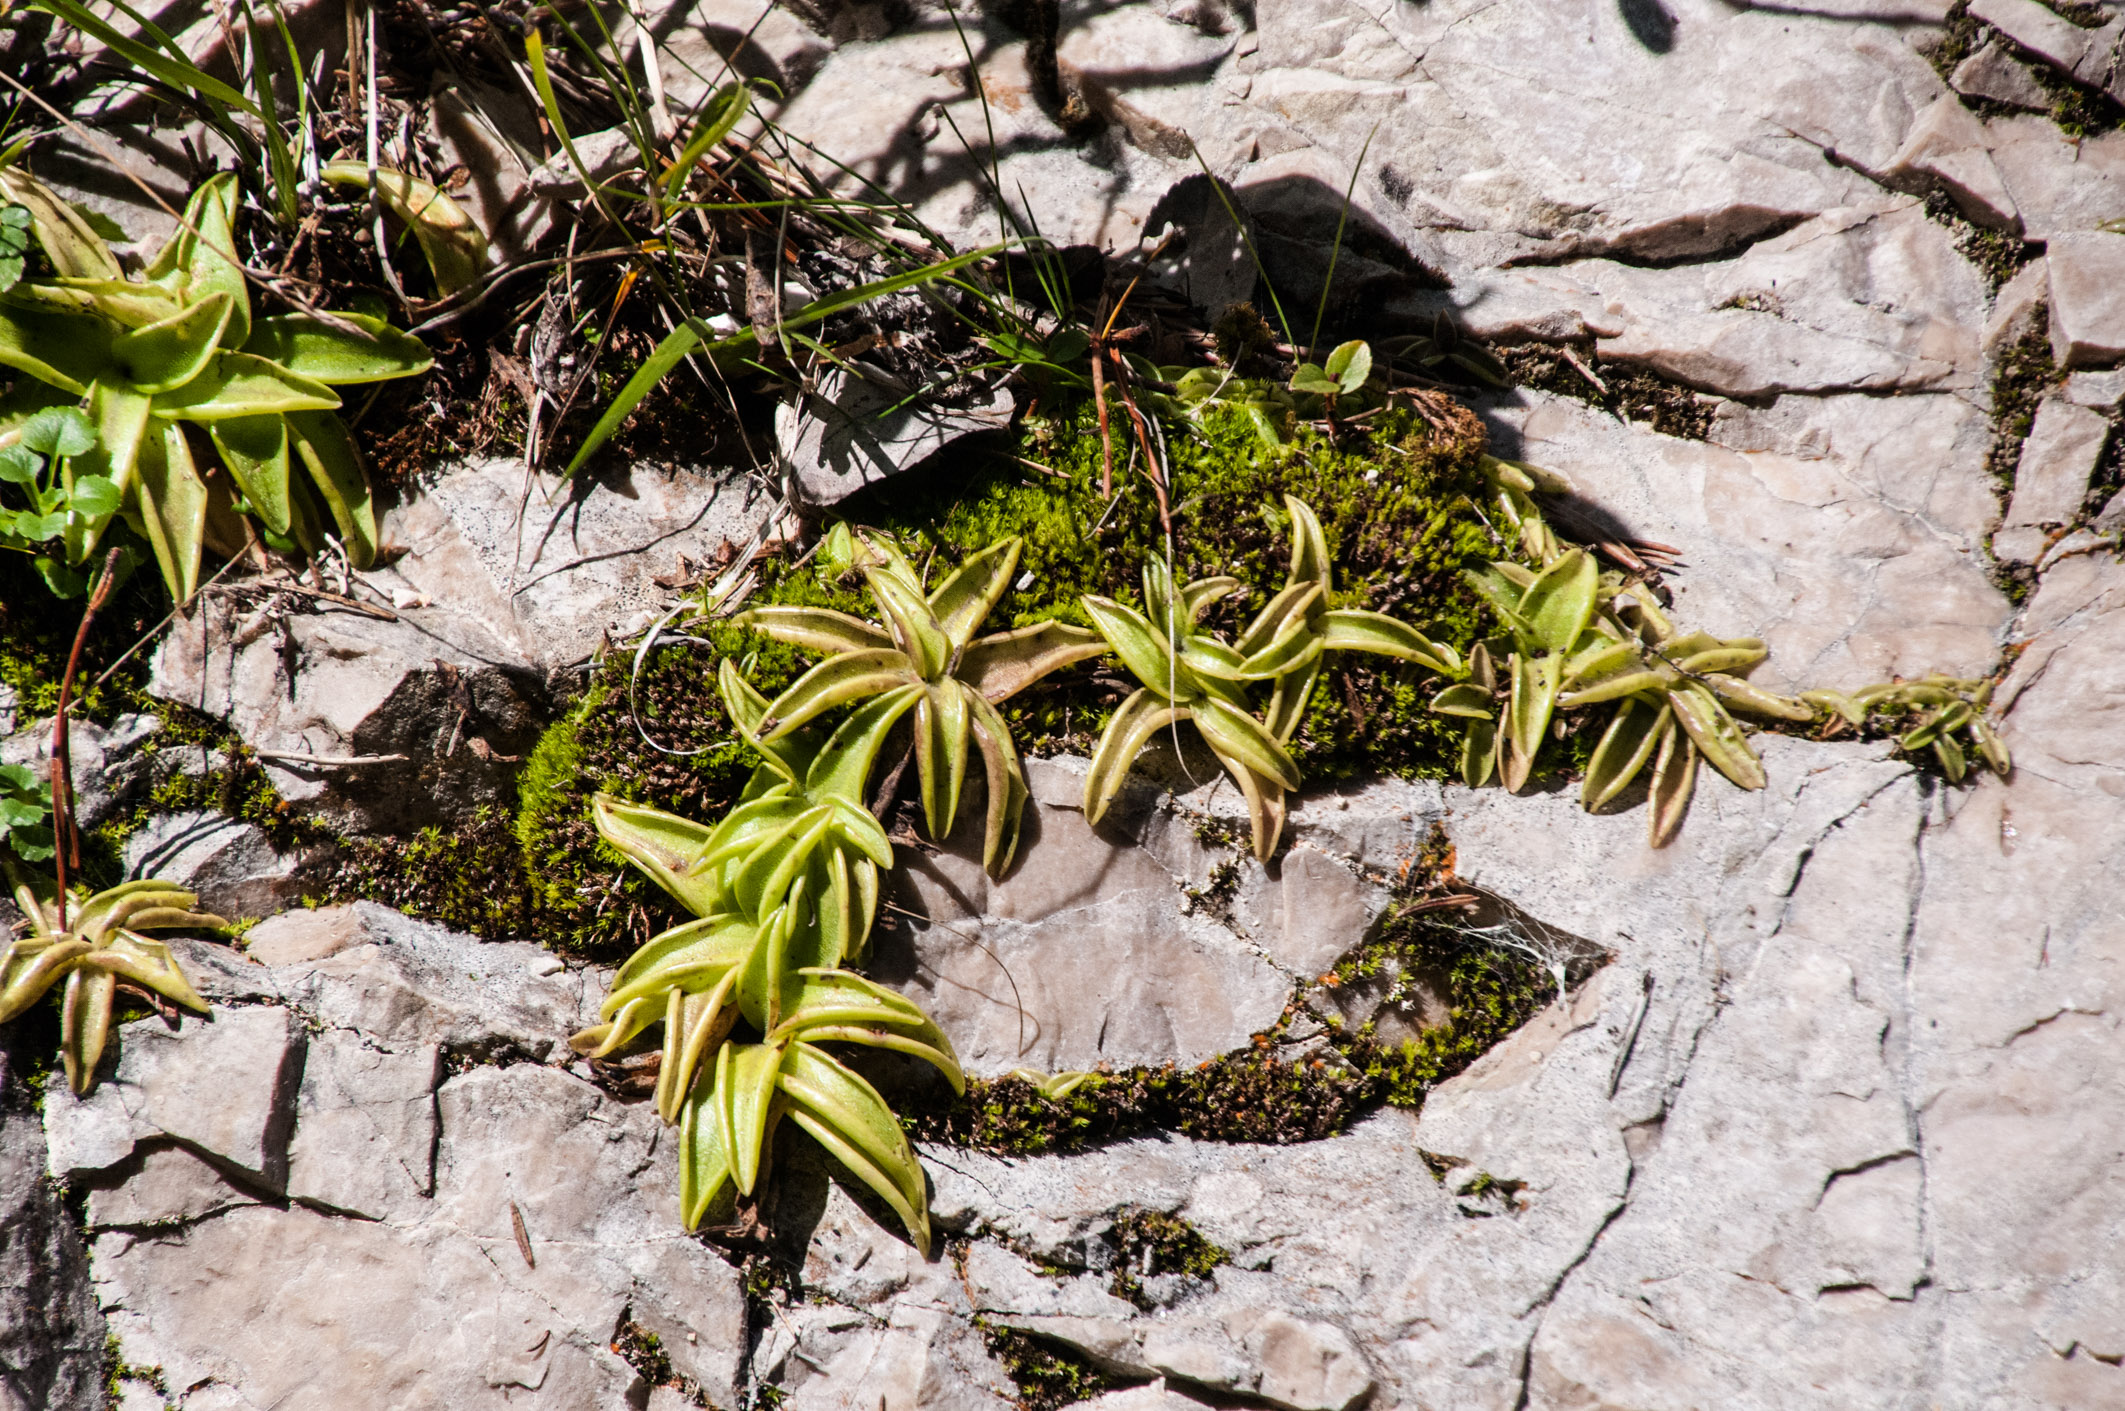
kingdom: Plantae
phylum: Tracheophyta
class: Magnoliopsida
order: Lamiales
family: Lentibulariaceae
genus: Pinguicula
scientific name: Pinguicula alpina
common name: Alpine butterwort
